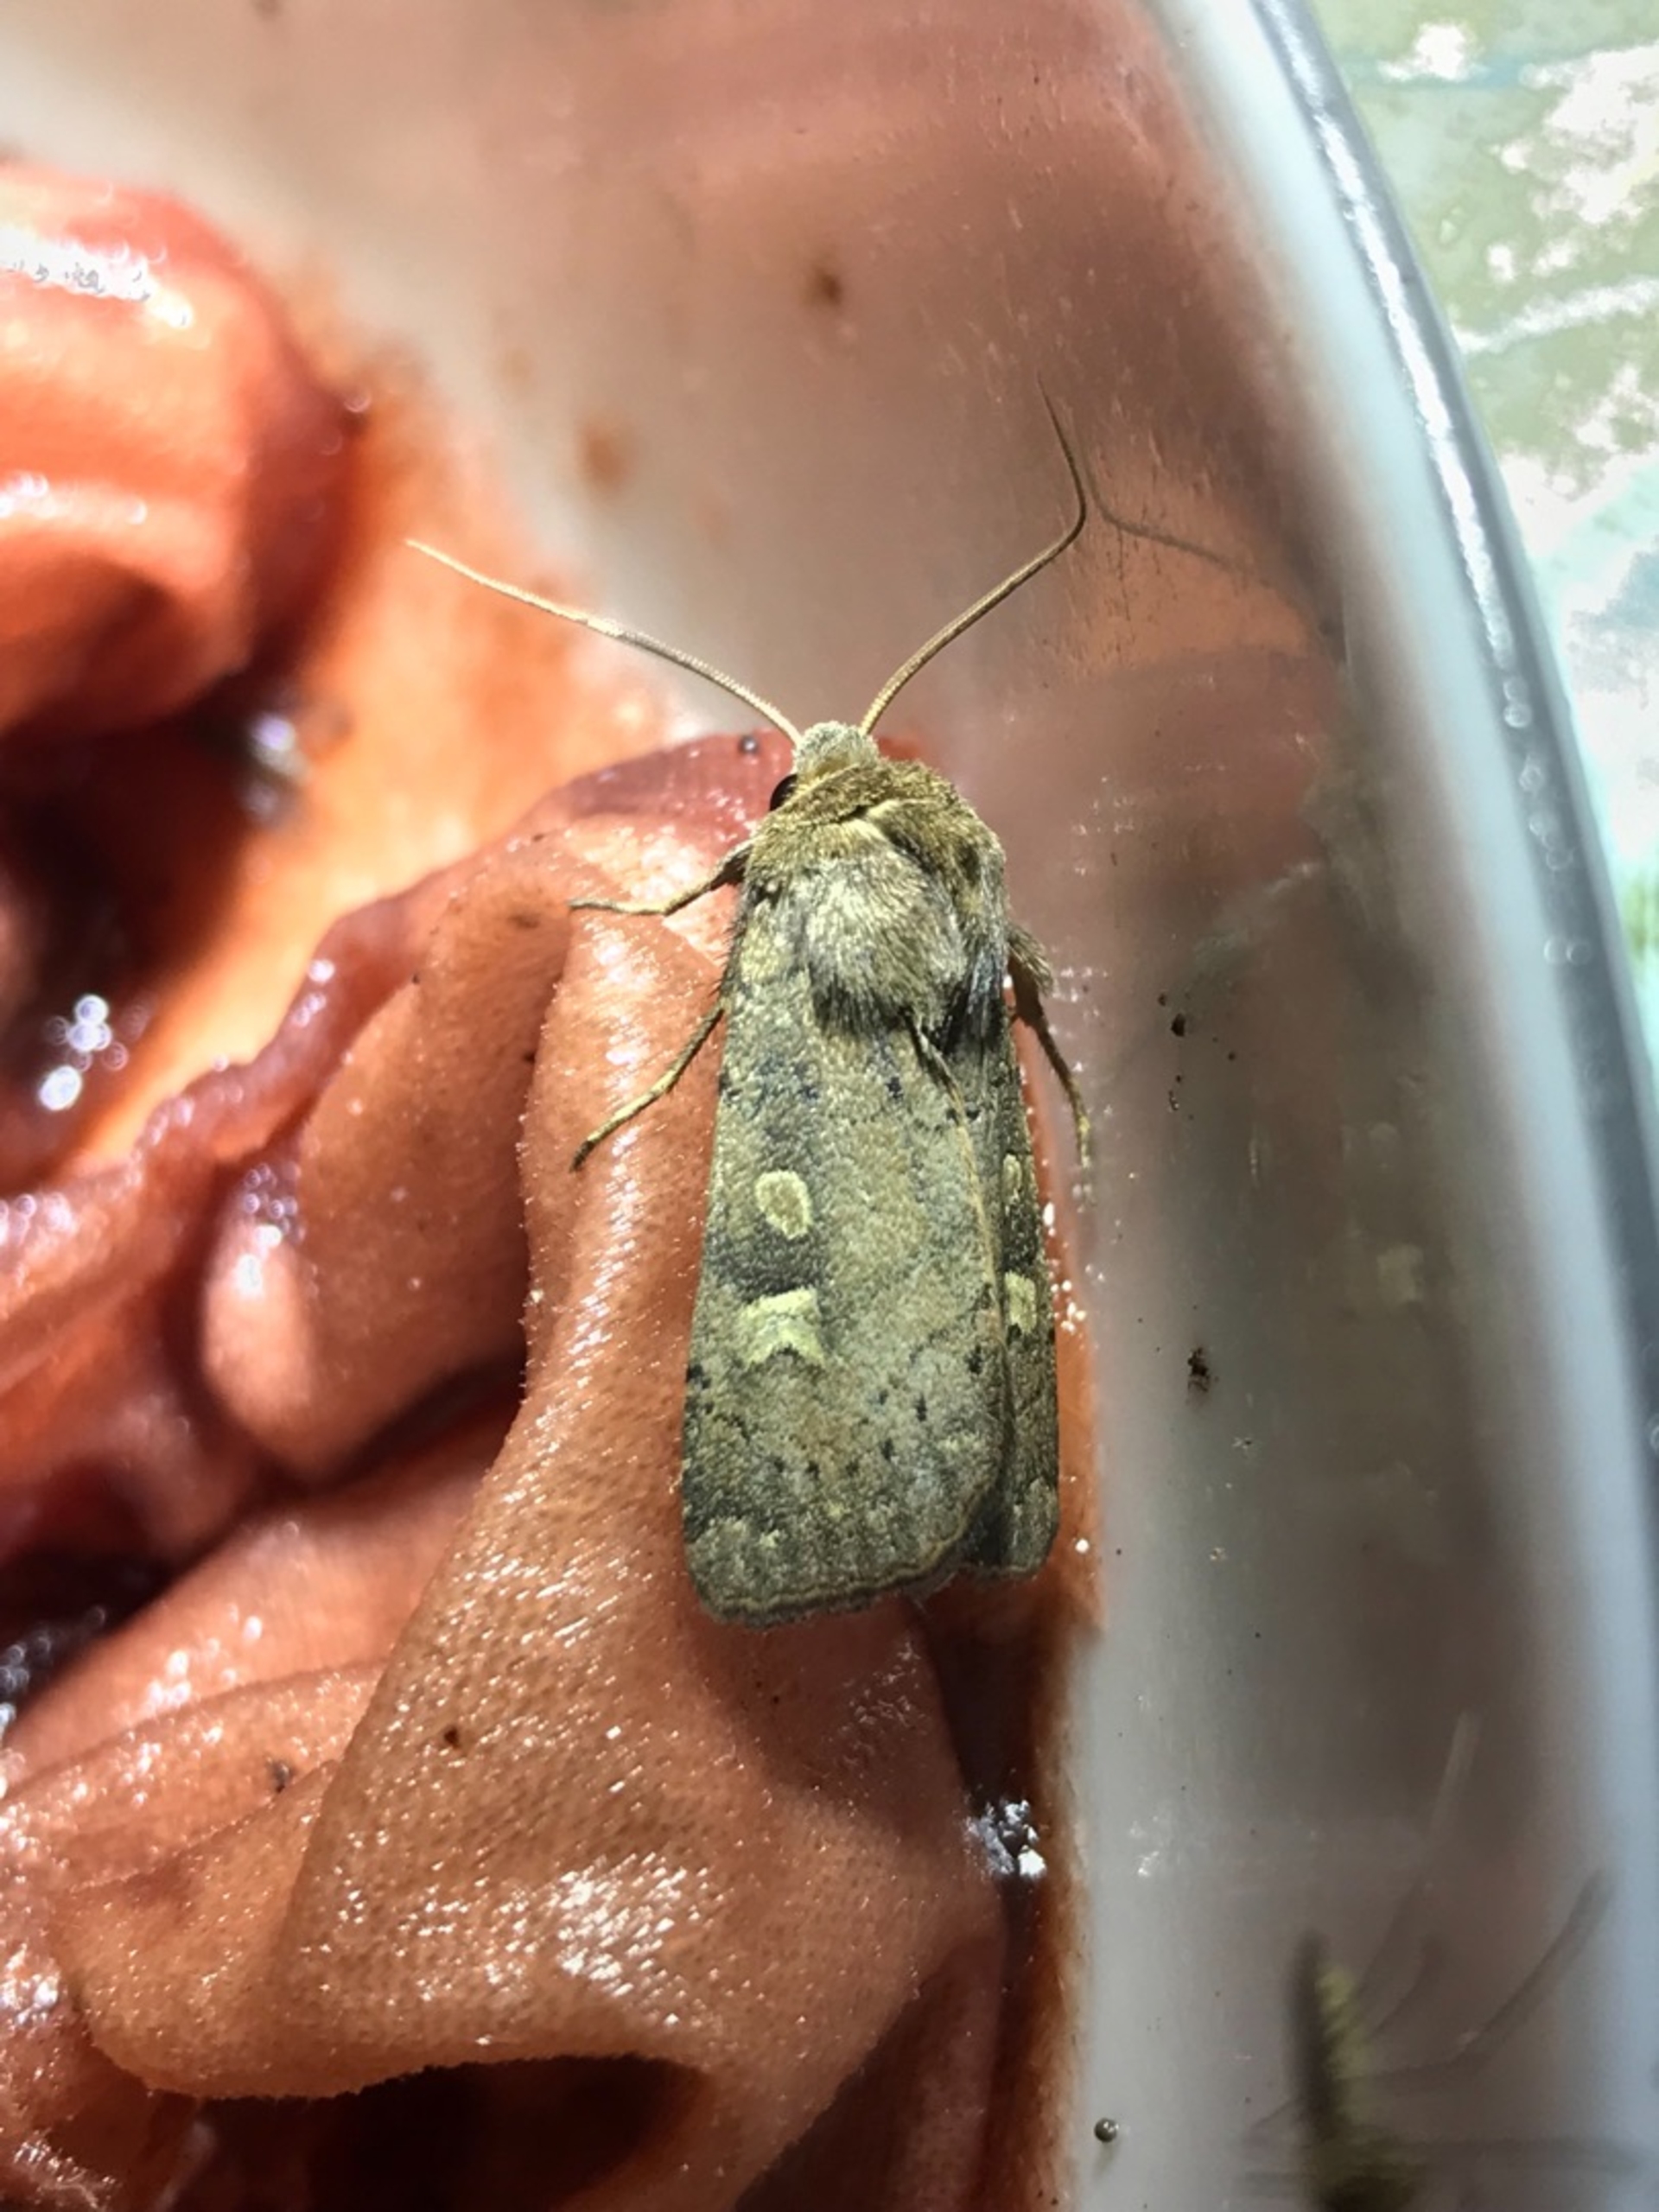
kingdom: Animalia
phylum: Arthropoda
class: Insecta
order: Lepidoptera
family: Noctuidae
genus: Xestia
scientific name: Xestia xanthographa
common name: Gulmærket glansugle
